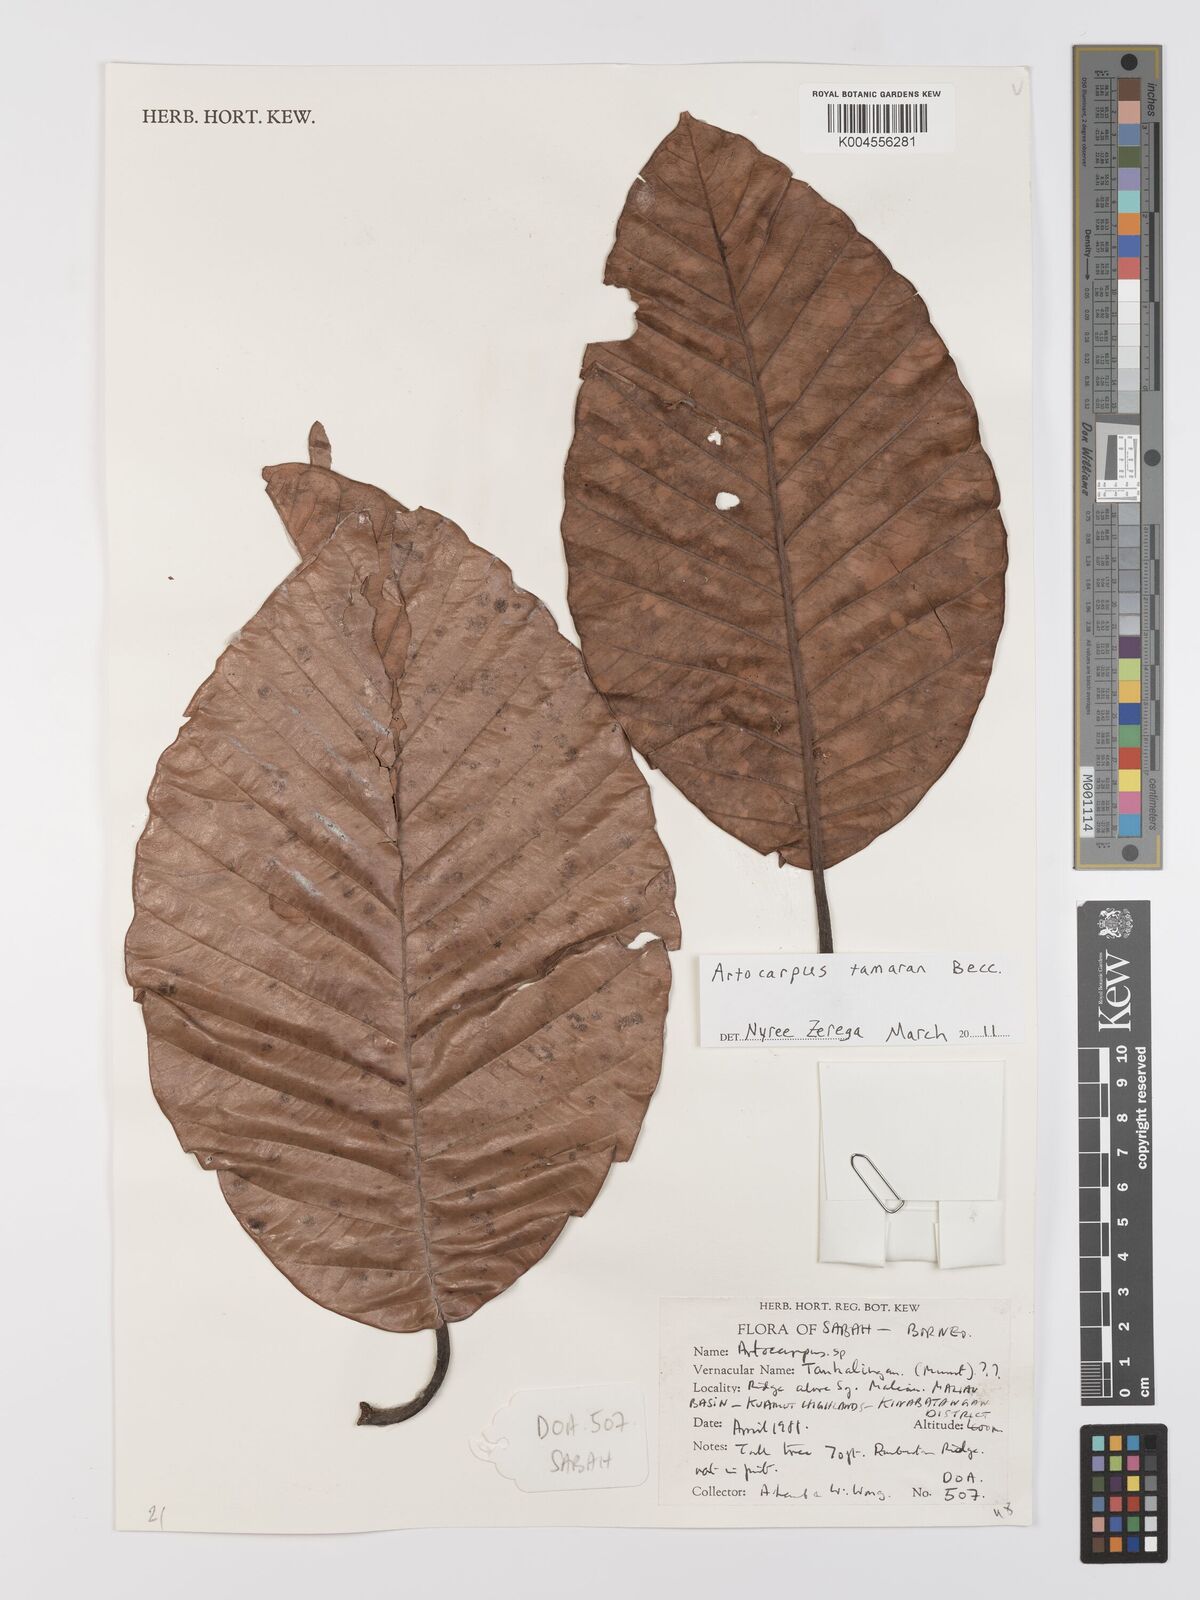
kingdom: Plantae
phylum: Tracheophyta
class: Magnoliopsida
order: Rosales
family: Moraceae
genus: Artocarpus
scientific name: Artocarpus tamaran
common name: Elephant jack
